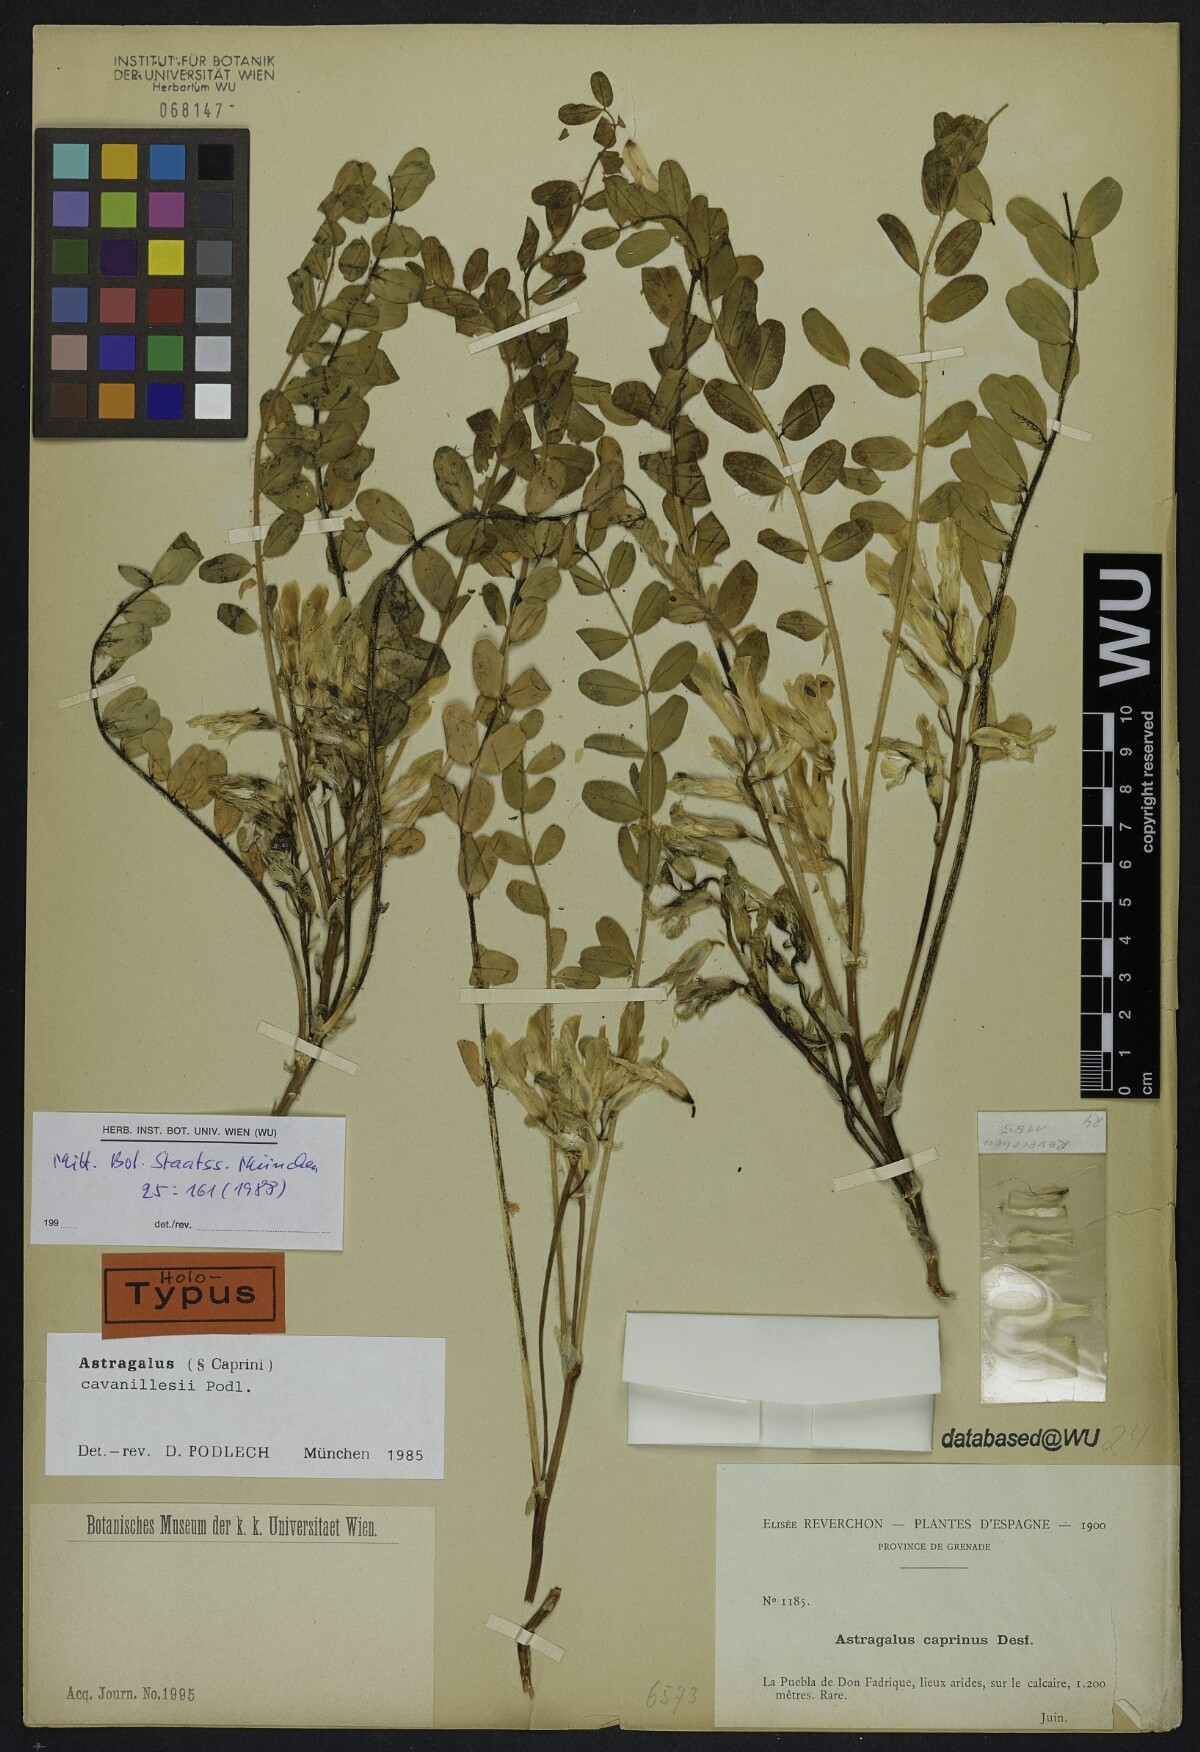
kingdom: Plantae
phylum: Tracheophyta
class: Magnoliopsida
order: Fabales
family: Fabaceae
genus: Astragalus
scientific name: Astragalus cavanillesii
